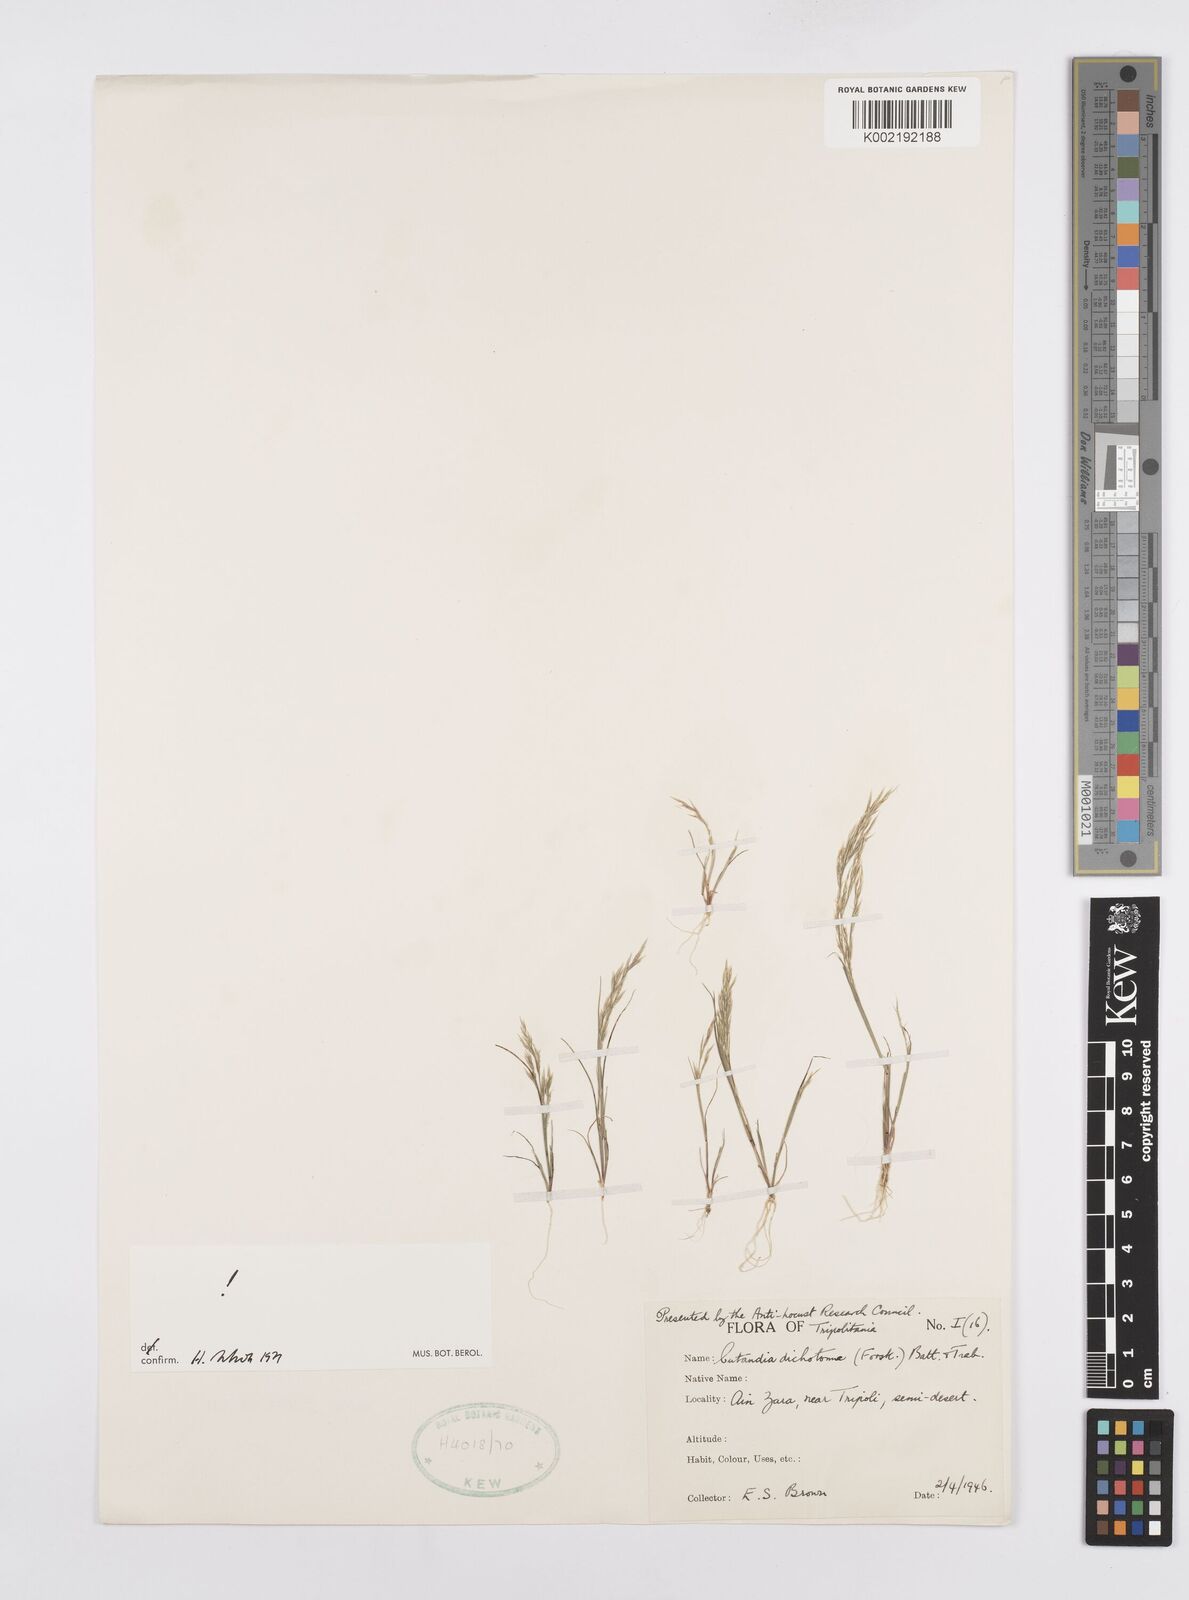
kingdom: Plantae
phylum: Tracheophyta
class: Liliopsida
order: Poales
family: Poaceae
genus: Cutandia
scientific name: Cutandia dichotoma
